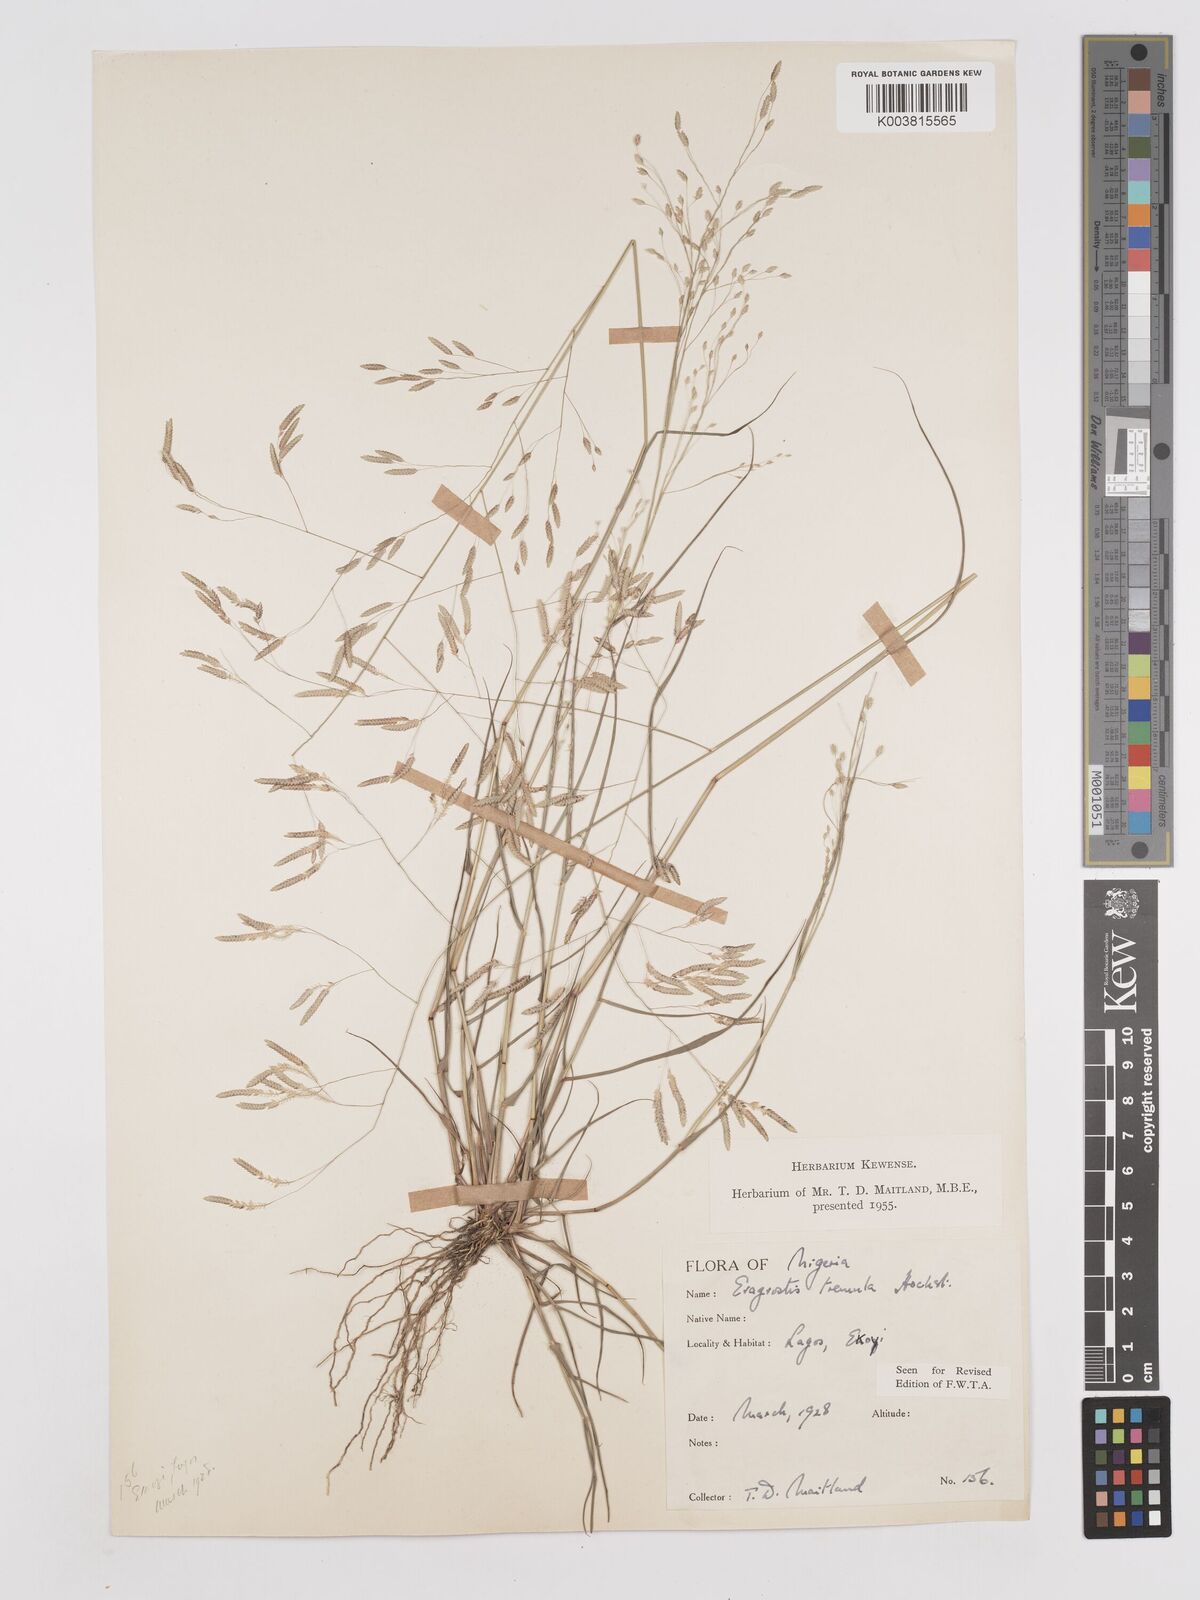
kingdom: Plantae
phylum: Tracheophyta
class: Liliopsida
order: Poales
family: Poaceae
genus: Eragrostis
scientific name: Eragrostis tremula
